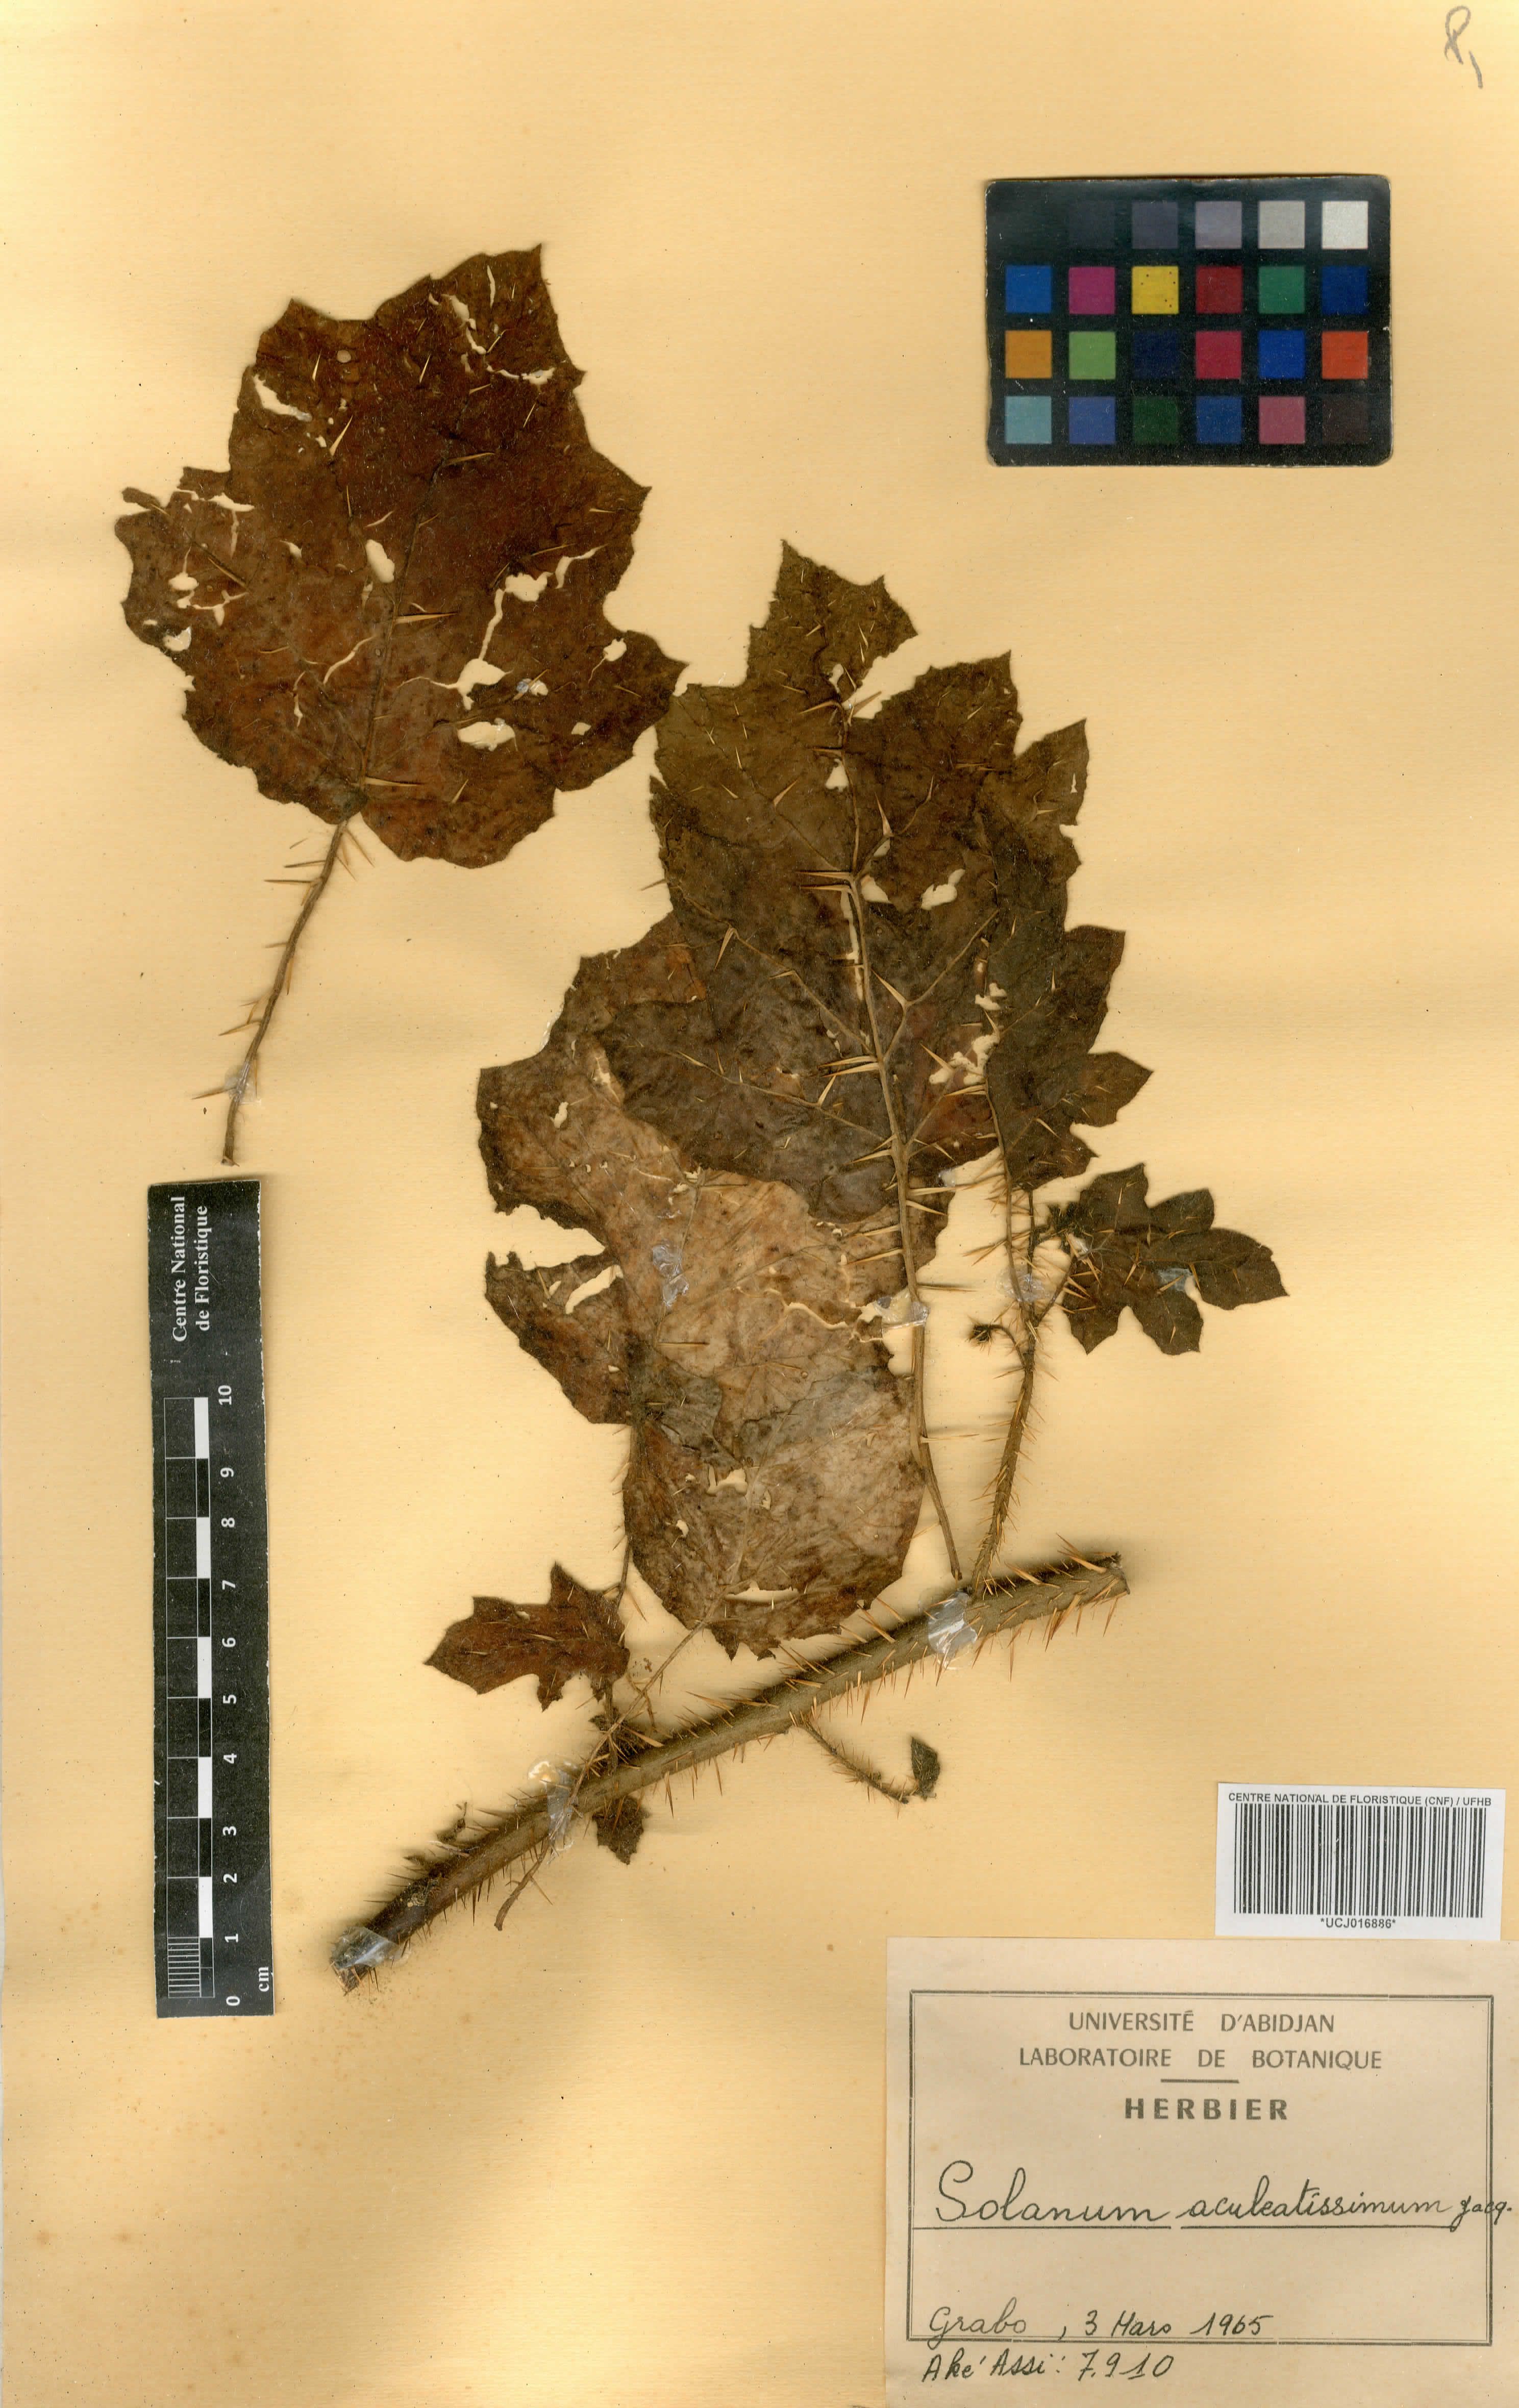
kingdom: Plantae
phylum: Tracheophyta
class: Magnoliopsida
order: Solanales
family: Solanaceae
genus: Solanum
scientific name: Solanum aculeatissimum
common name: Dutch eggplant
